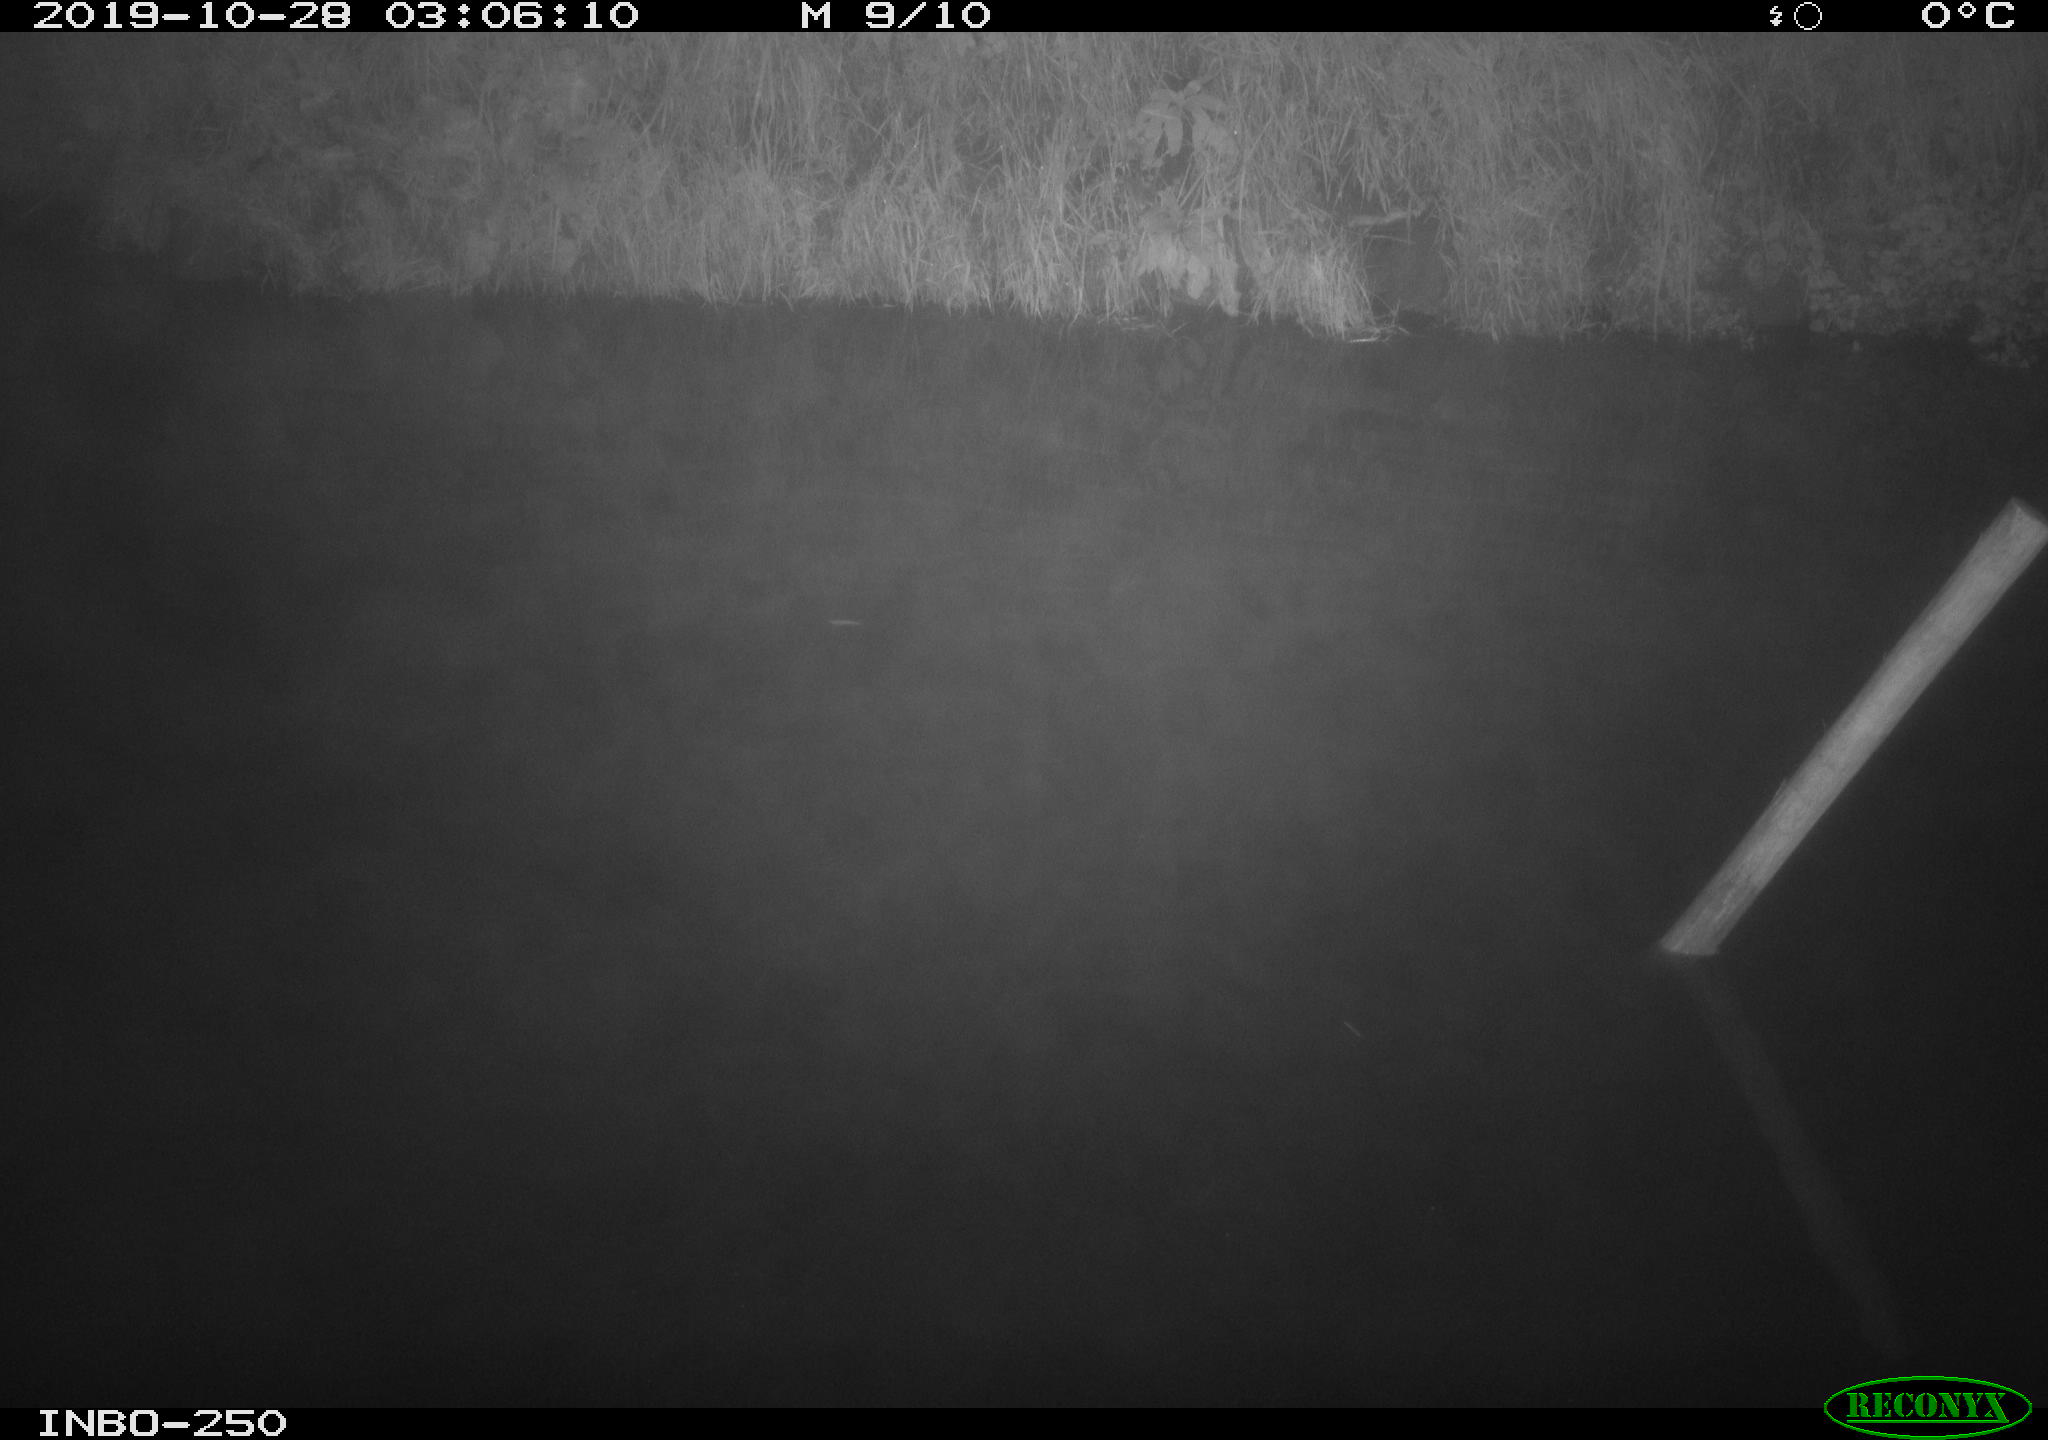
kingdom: Animalia
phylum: Chordata
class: Aves
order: Anseriformes
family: Anatidae
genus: Anas
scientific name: Anas platyrhynchos
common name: Mallard
